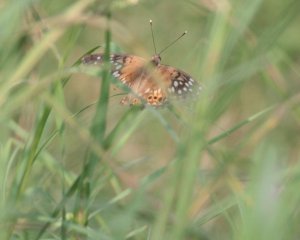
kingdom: Animalia
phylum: Arthropoda
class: Insecta
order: Lepidoptera
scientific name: Lepidoptera
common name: Butterflies
